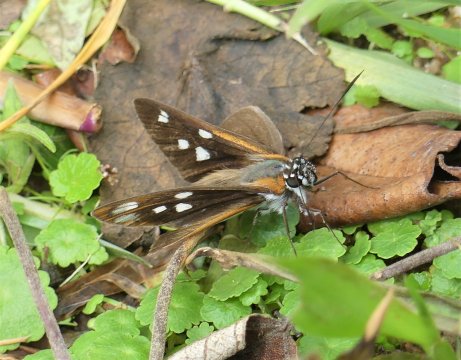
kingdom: Animalia
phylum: Arthropoda
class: Insecta
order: Lepidoptera
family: Hesperiidae
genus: Vettius
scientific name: Vettius coryna
